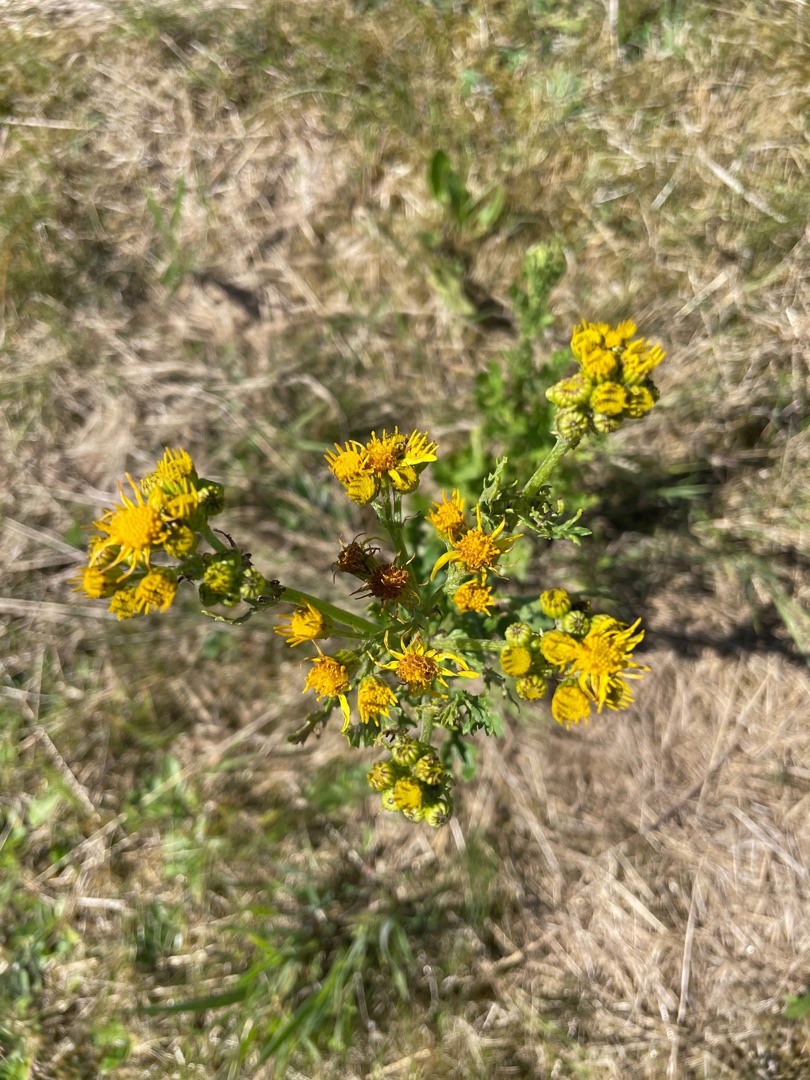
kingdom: Plantae
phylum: Tracheophyta
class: Magnoliopsida
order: Asterales
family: Asteraceae
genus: Jacobaea
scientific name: Jacobaea vulgaris
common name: Eng-brandbæger
